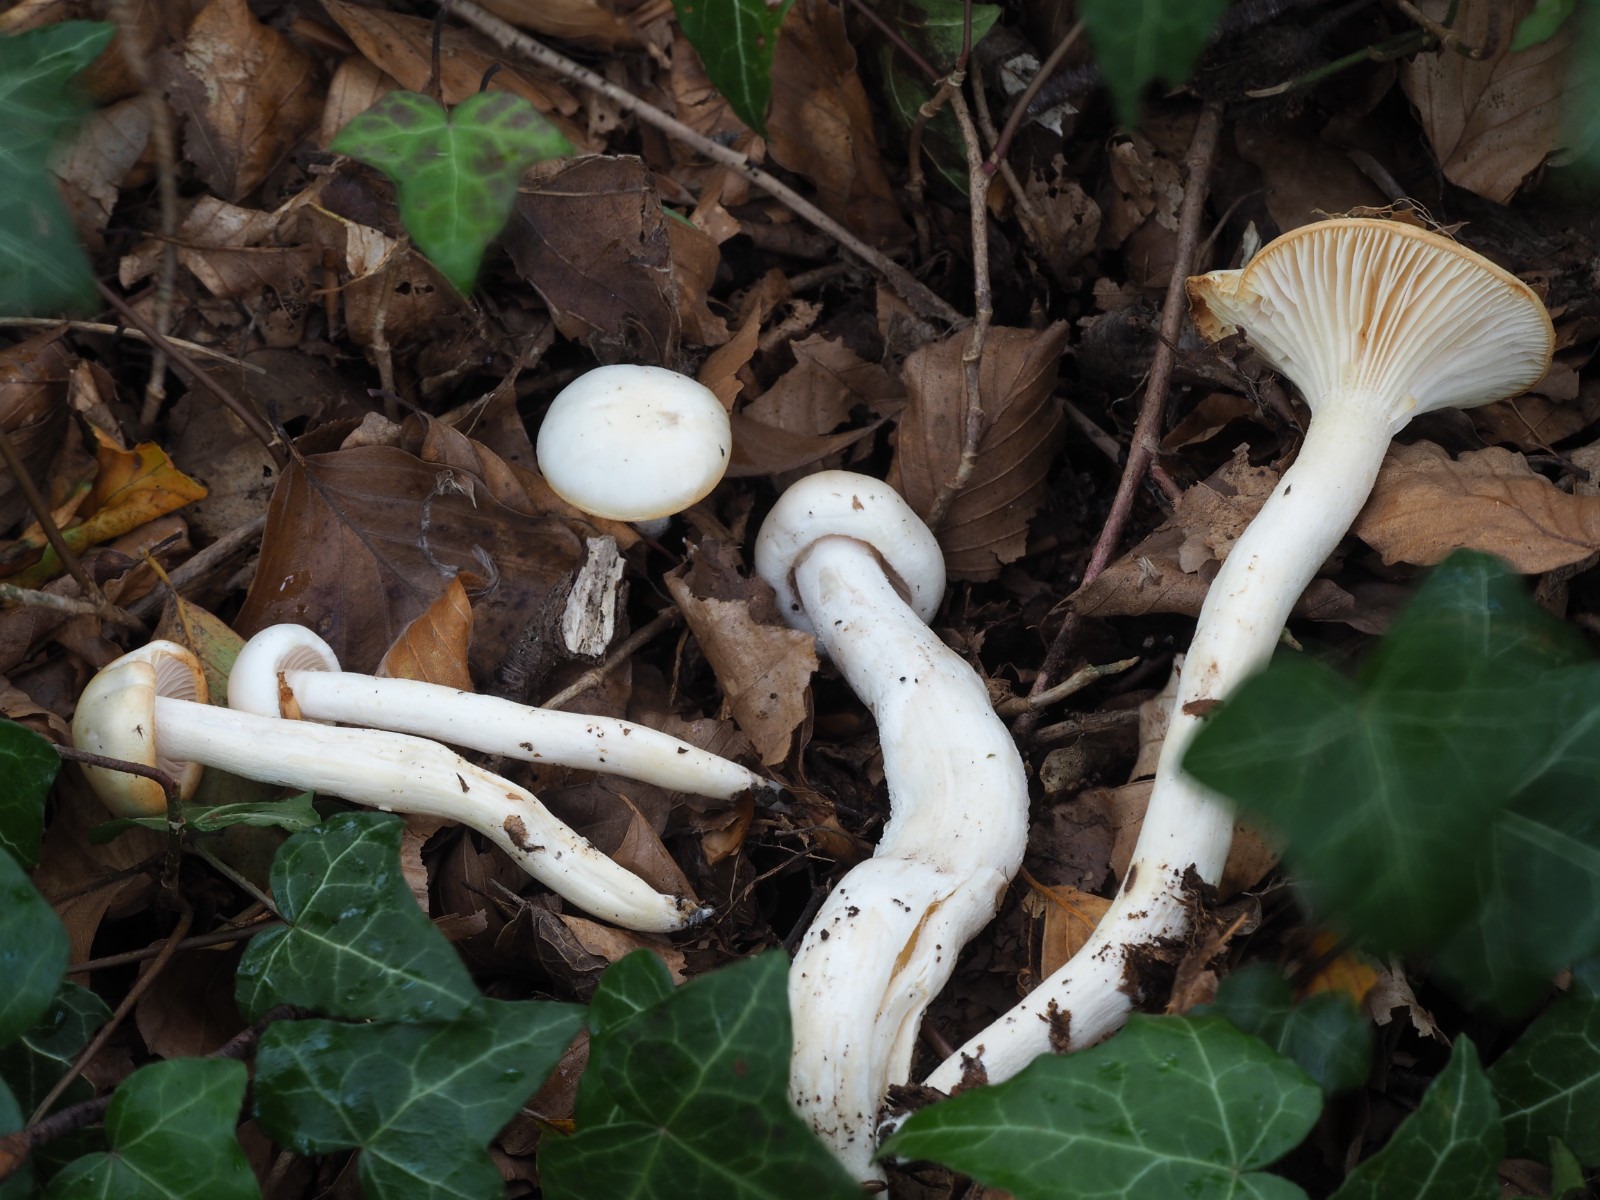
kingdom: Fungi
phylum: Basidiomycota
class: Agaricomycetes
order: Agaricales
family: Hygrophoraceae
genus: Hygrophorus
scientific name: Hygrophorus discoxanthus
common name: ildelugtende sneglehat
